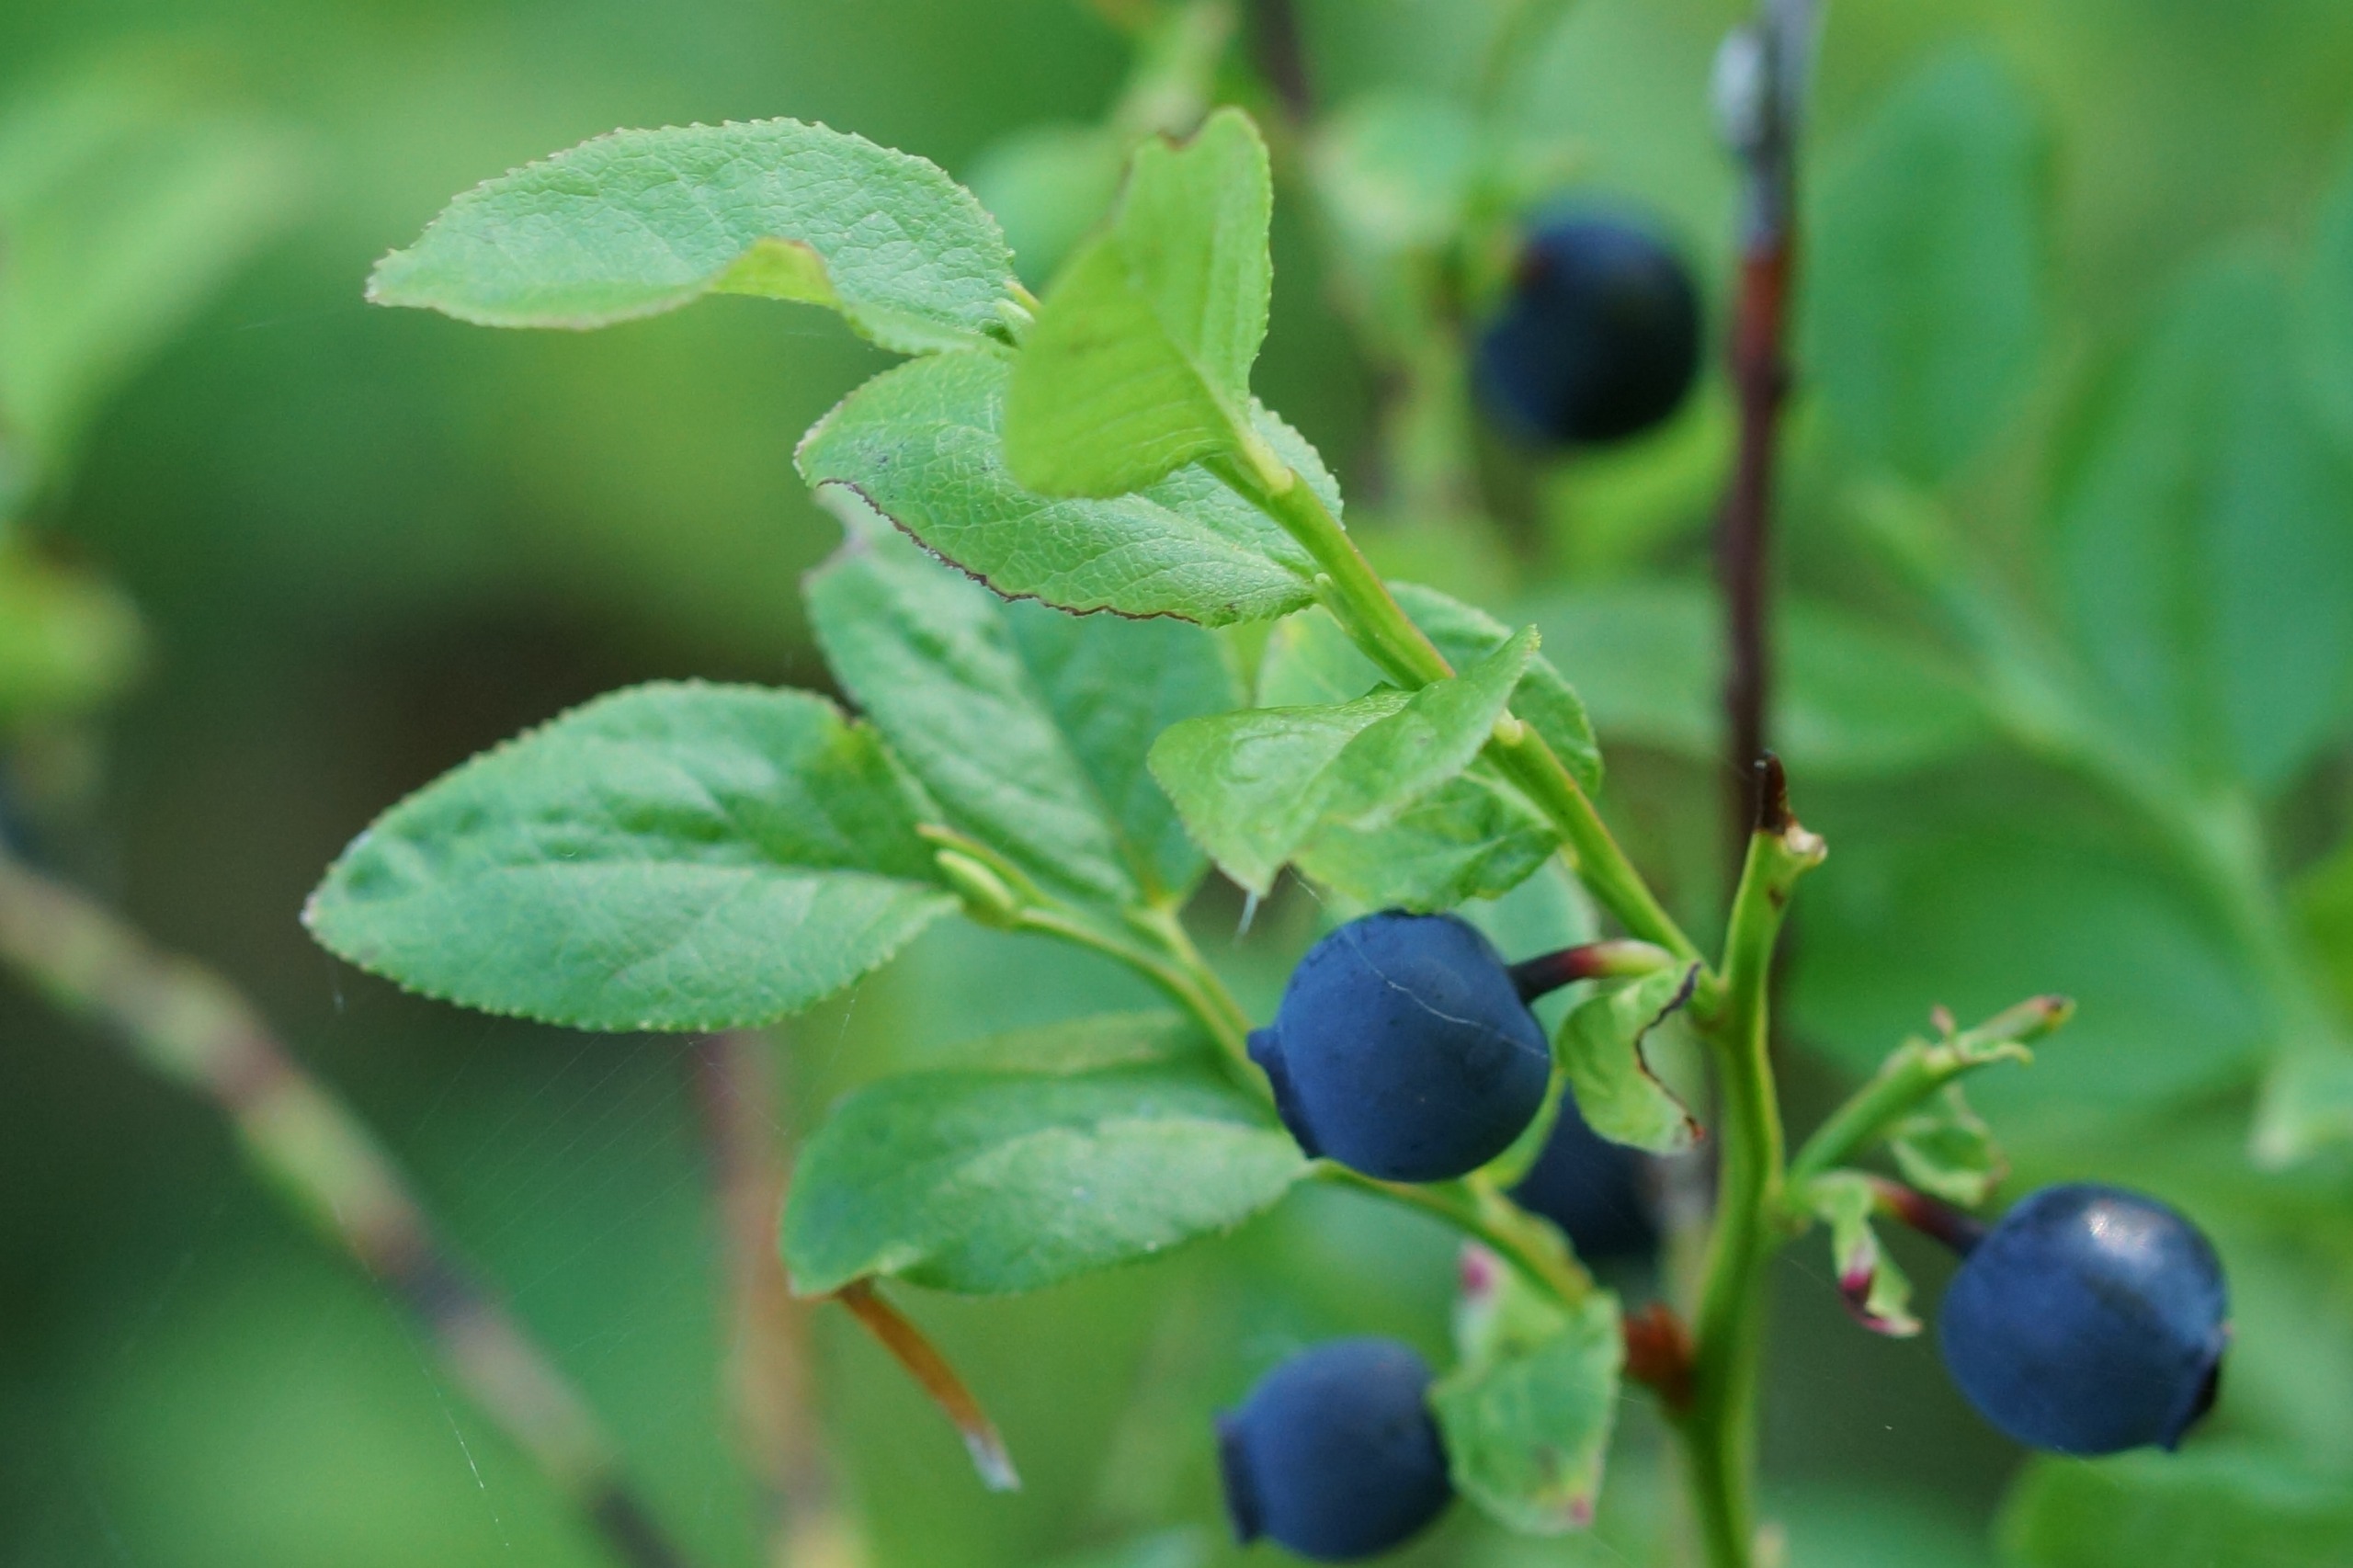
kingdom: Plantae
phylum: Tracheophyta
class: Magnoliopsida
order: Ericales
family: Ericaceae
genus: Vaccinium
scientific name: Vaccinium myrtillus
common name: Blåbær
